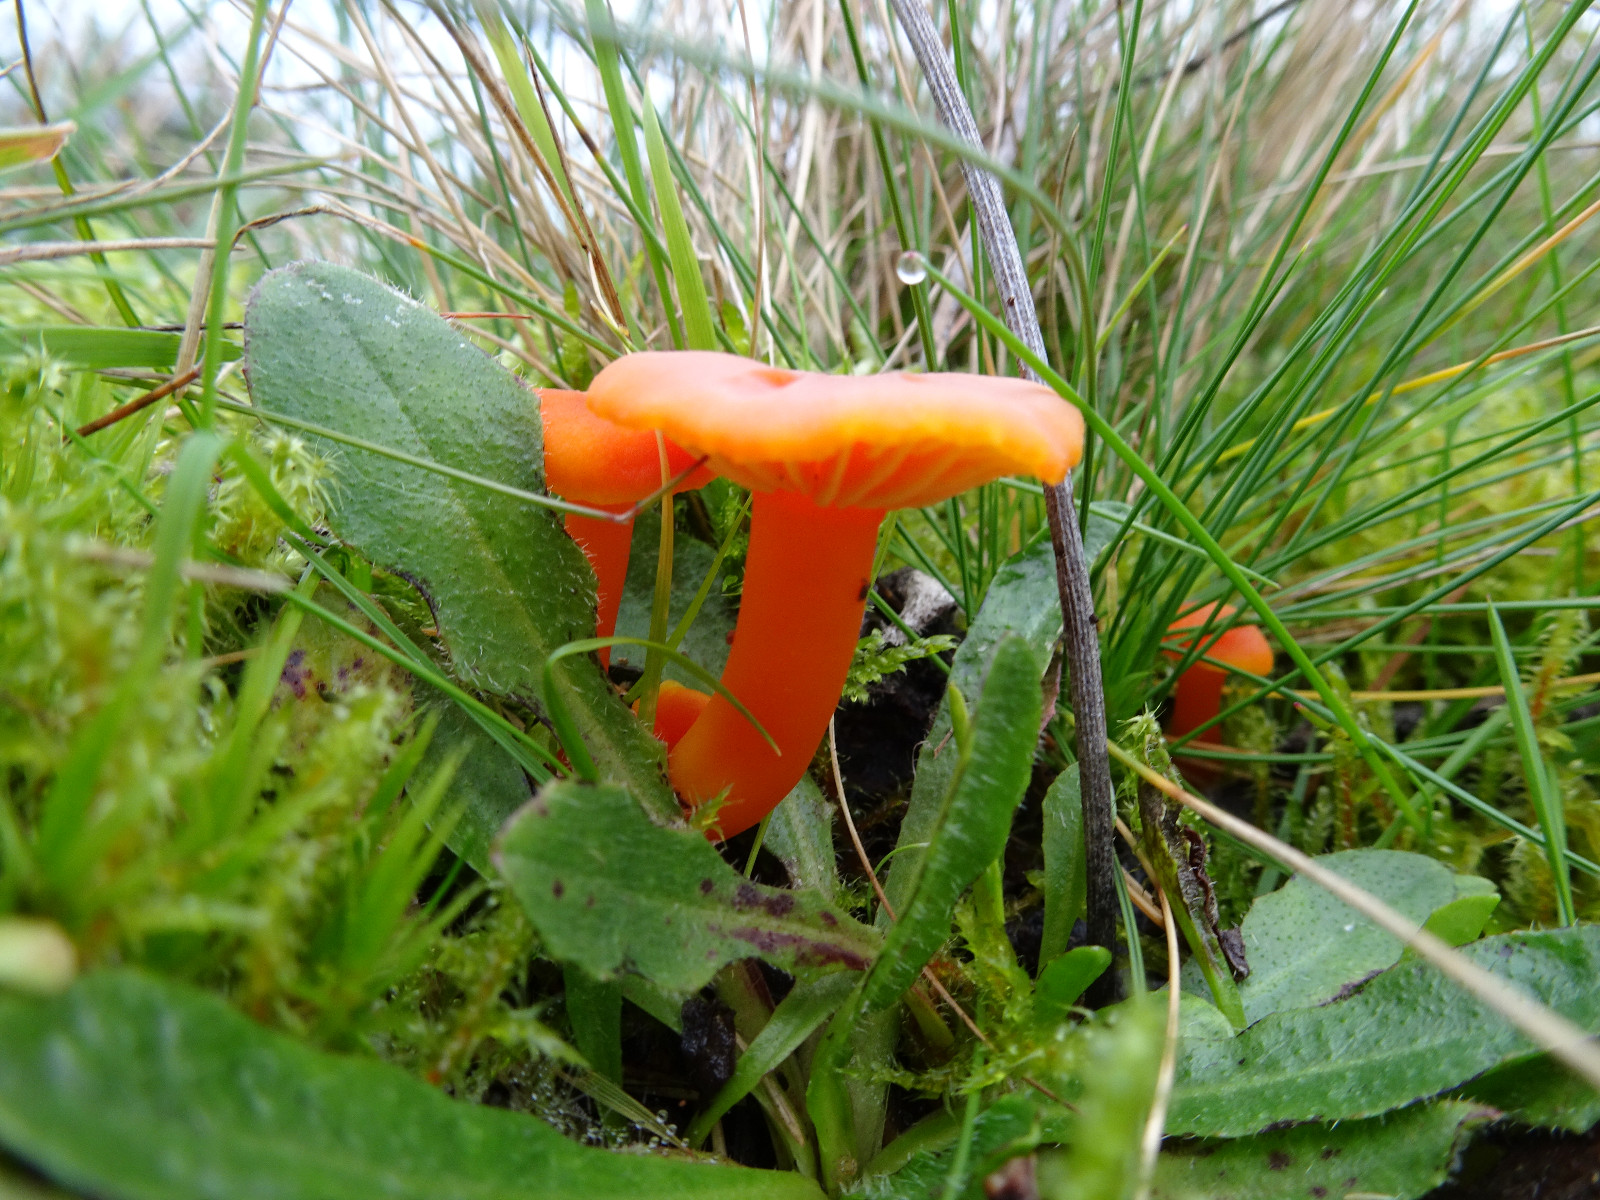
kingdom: Fungi
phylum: Basidiomycota
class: Agaricomycetes
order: Agaricales
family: Hygrophoraceae
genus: Hygrocybe
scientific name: Hygrocybe miniata
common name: mønje-vokshat
